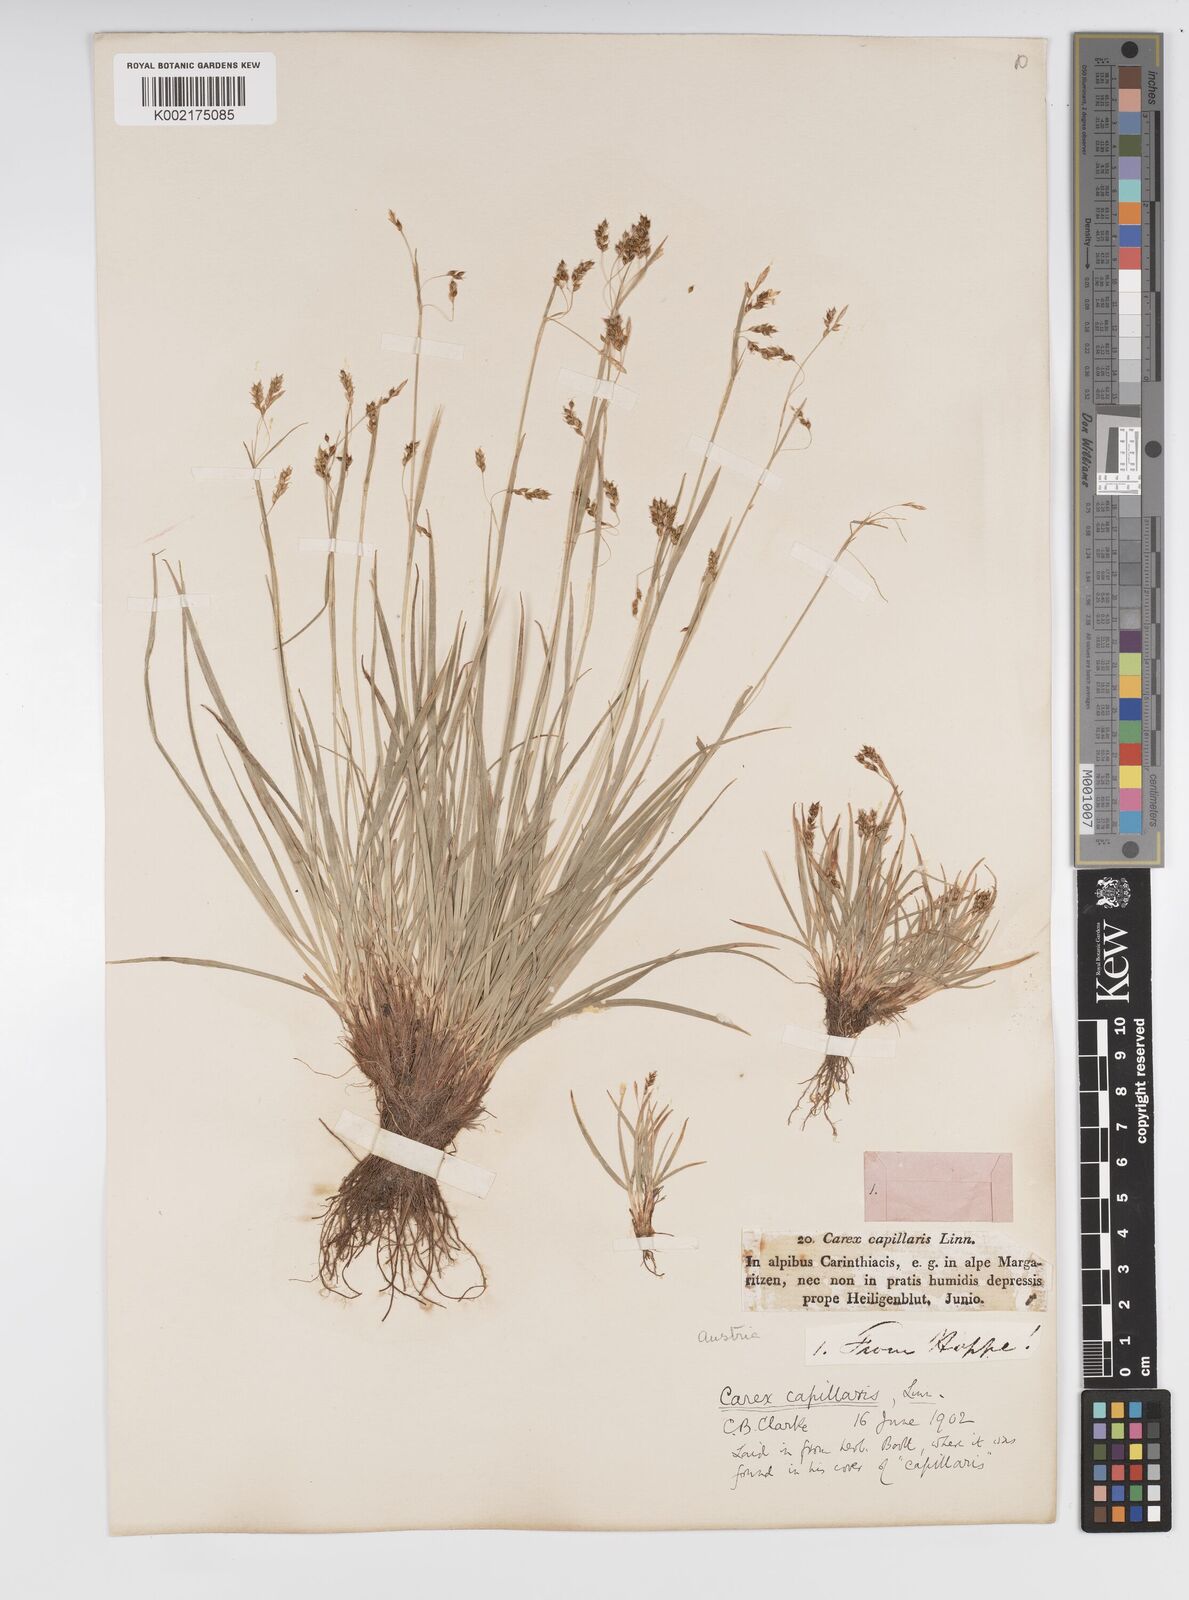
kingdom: Plantae
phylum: Tracheophyta
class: Liliopsida
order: Poales
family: Cyperaceae
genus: Carex
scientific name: Carex capillaris
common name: Hair sedge
